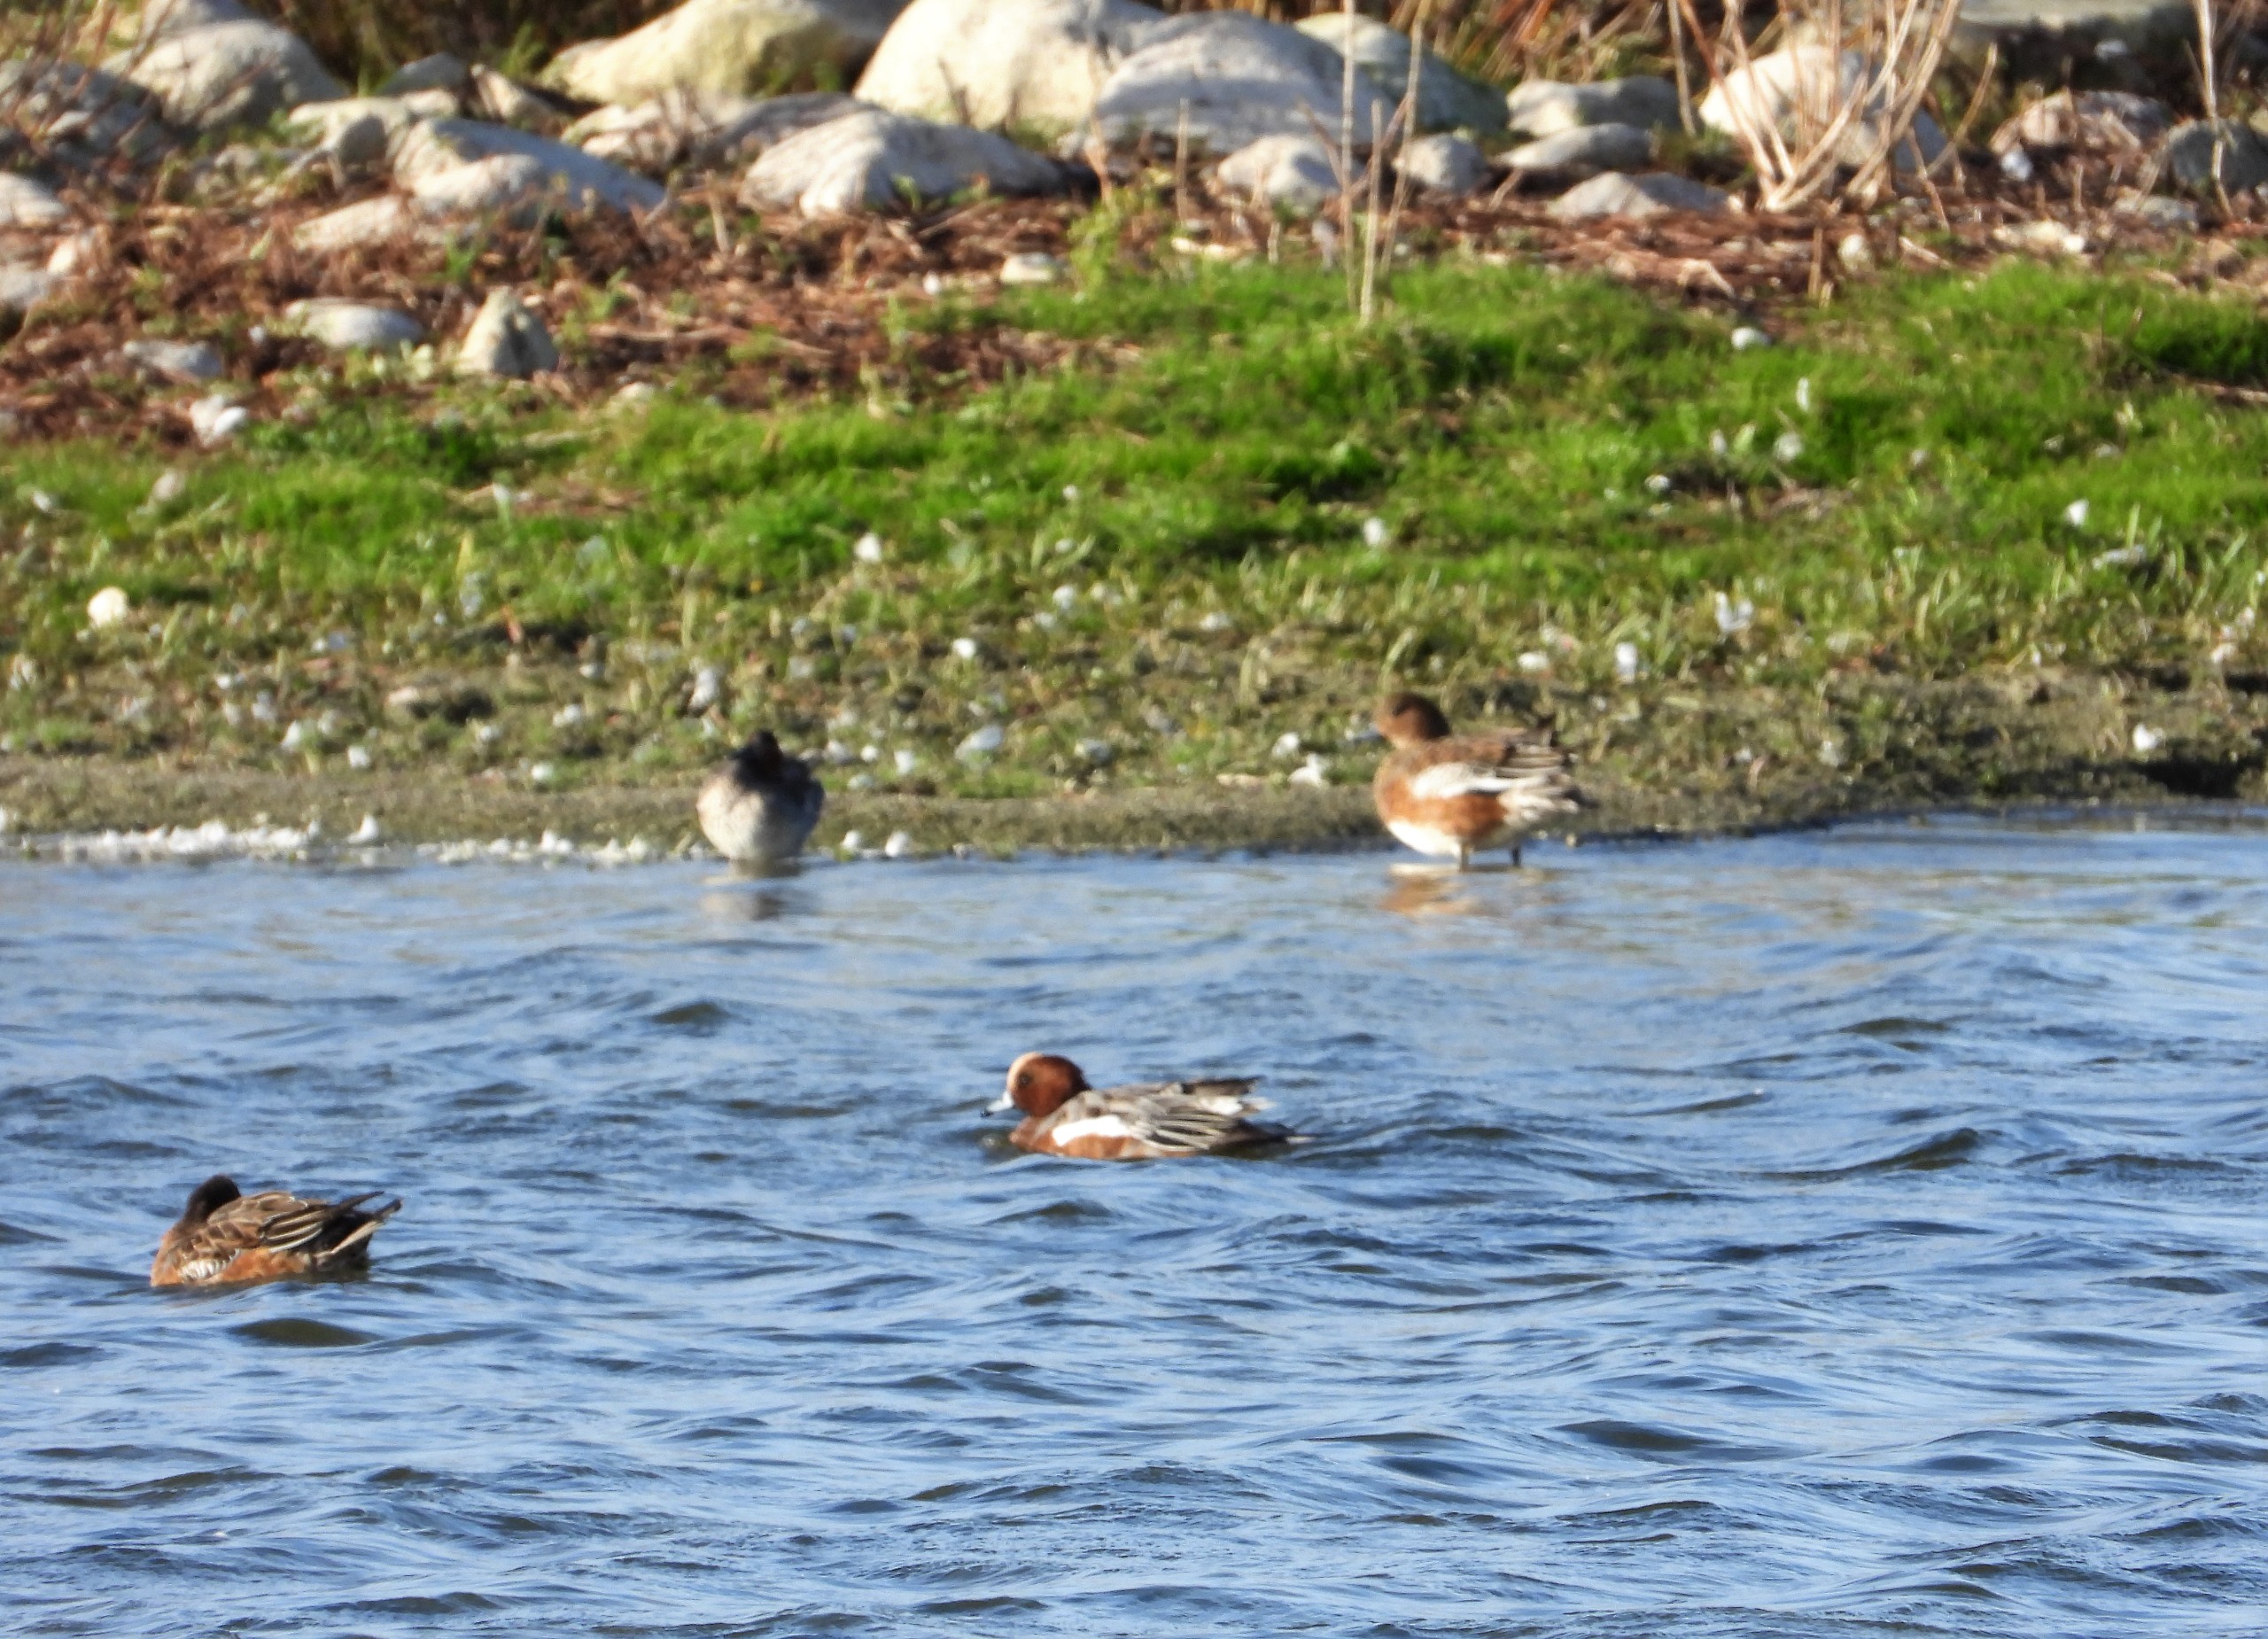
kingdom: Animalia
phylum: Chordata
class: Aves
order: Anseriformes
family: Anatidae
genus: Mareca
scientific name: Mareca penelope
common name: Pibeand
